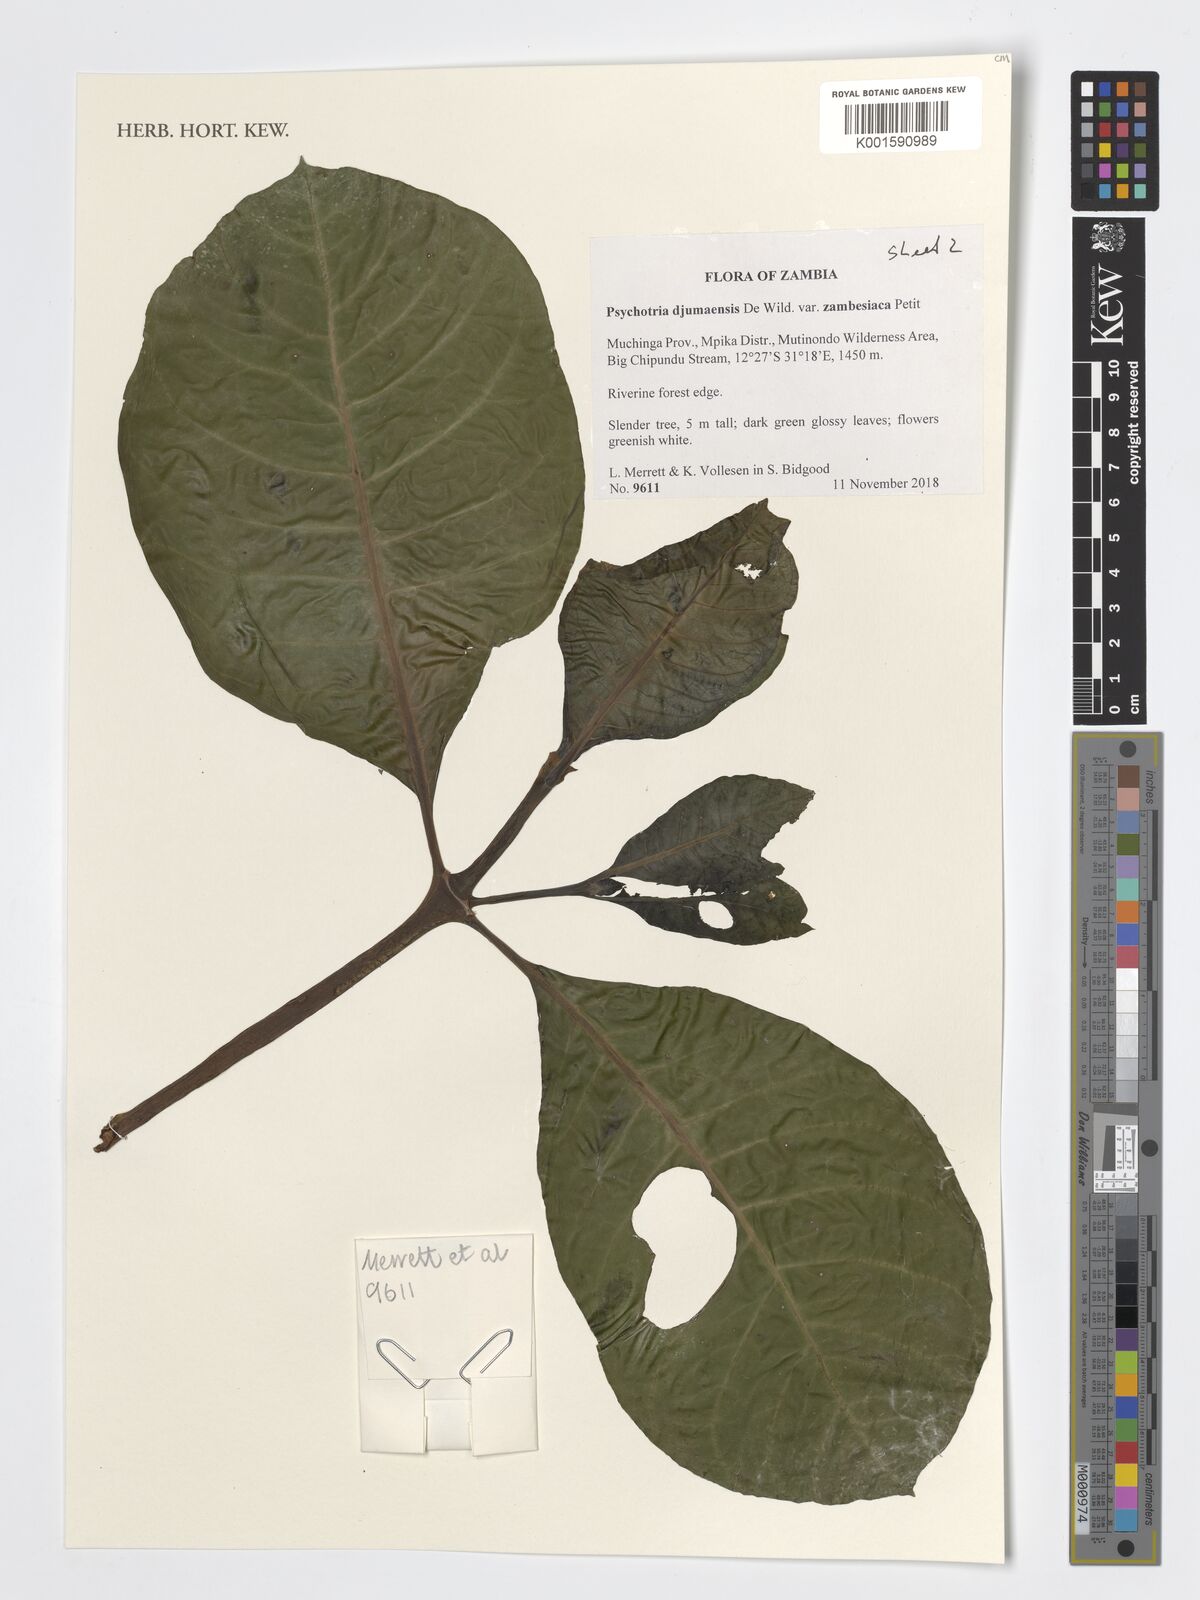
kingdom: Plantae
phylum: Tracheophyta
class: Magnoliopsida
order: Gentianales
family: Rubiaceae
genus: Psychotria
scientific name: Psychotria djumaensis
